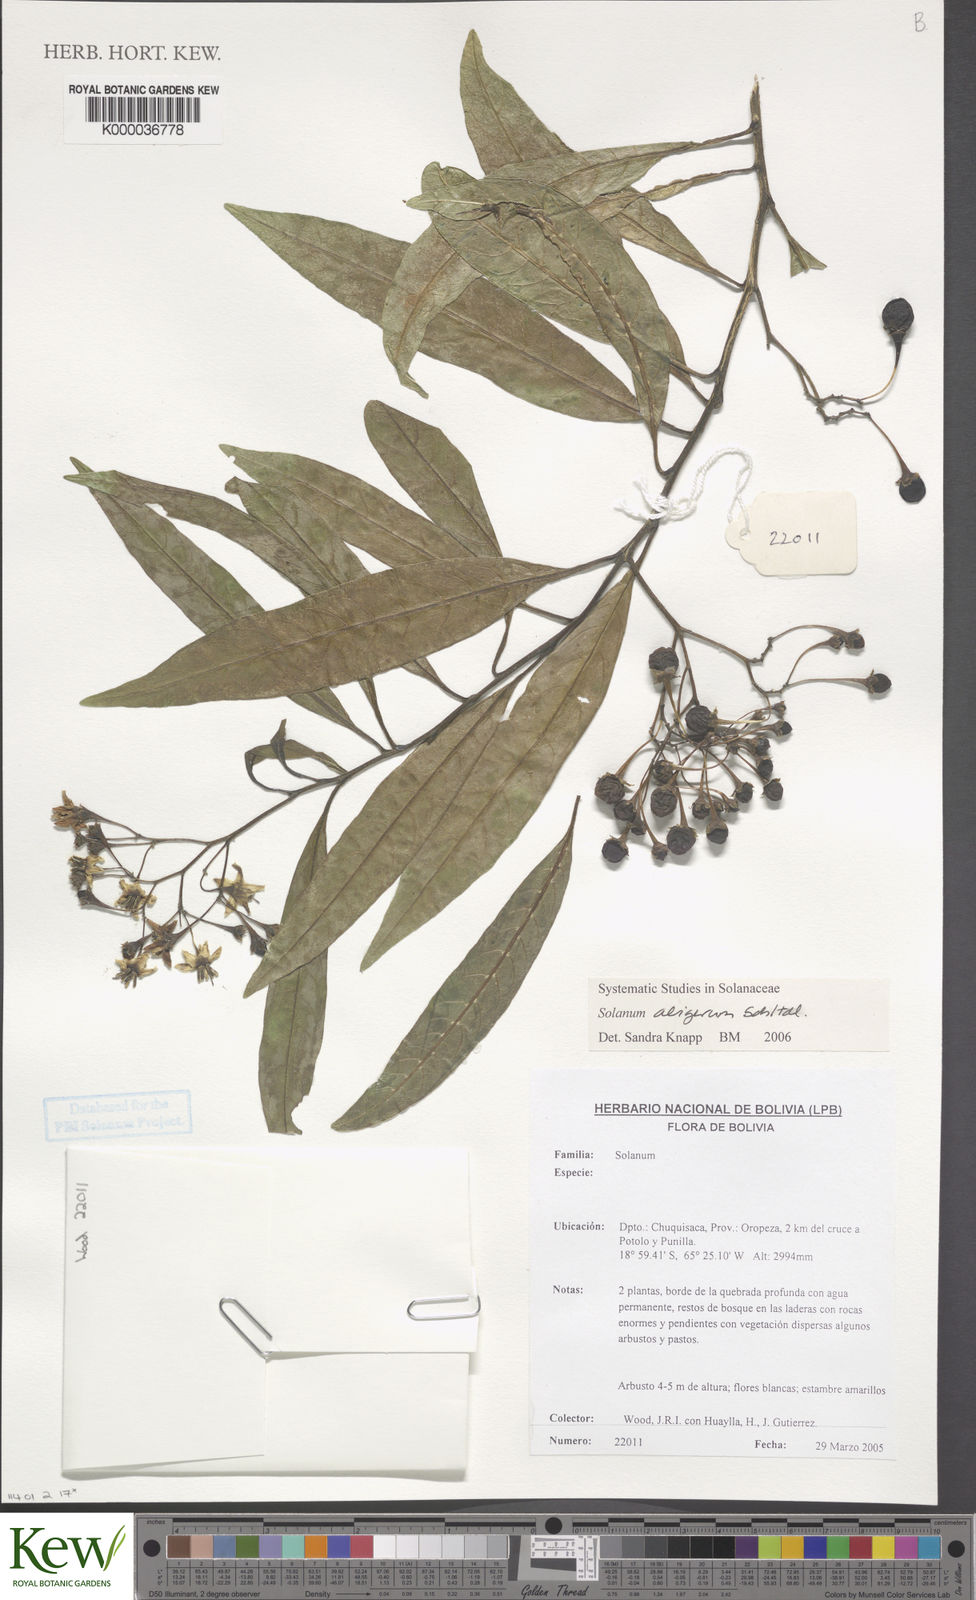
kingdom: Plantae
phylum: Tracheophyta
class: Magnoliopsida
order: Solanales
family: Solanaceae
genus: Solanum
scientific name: Solanum aligerum
